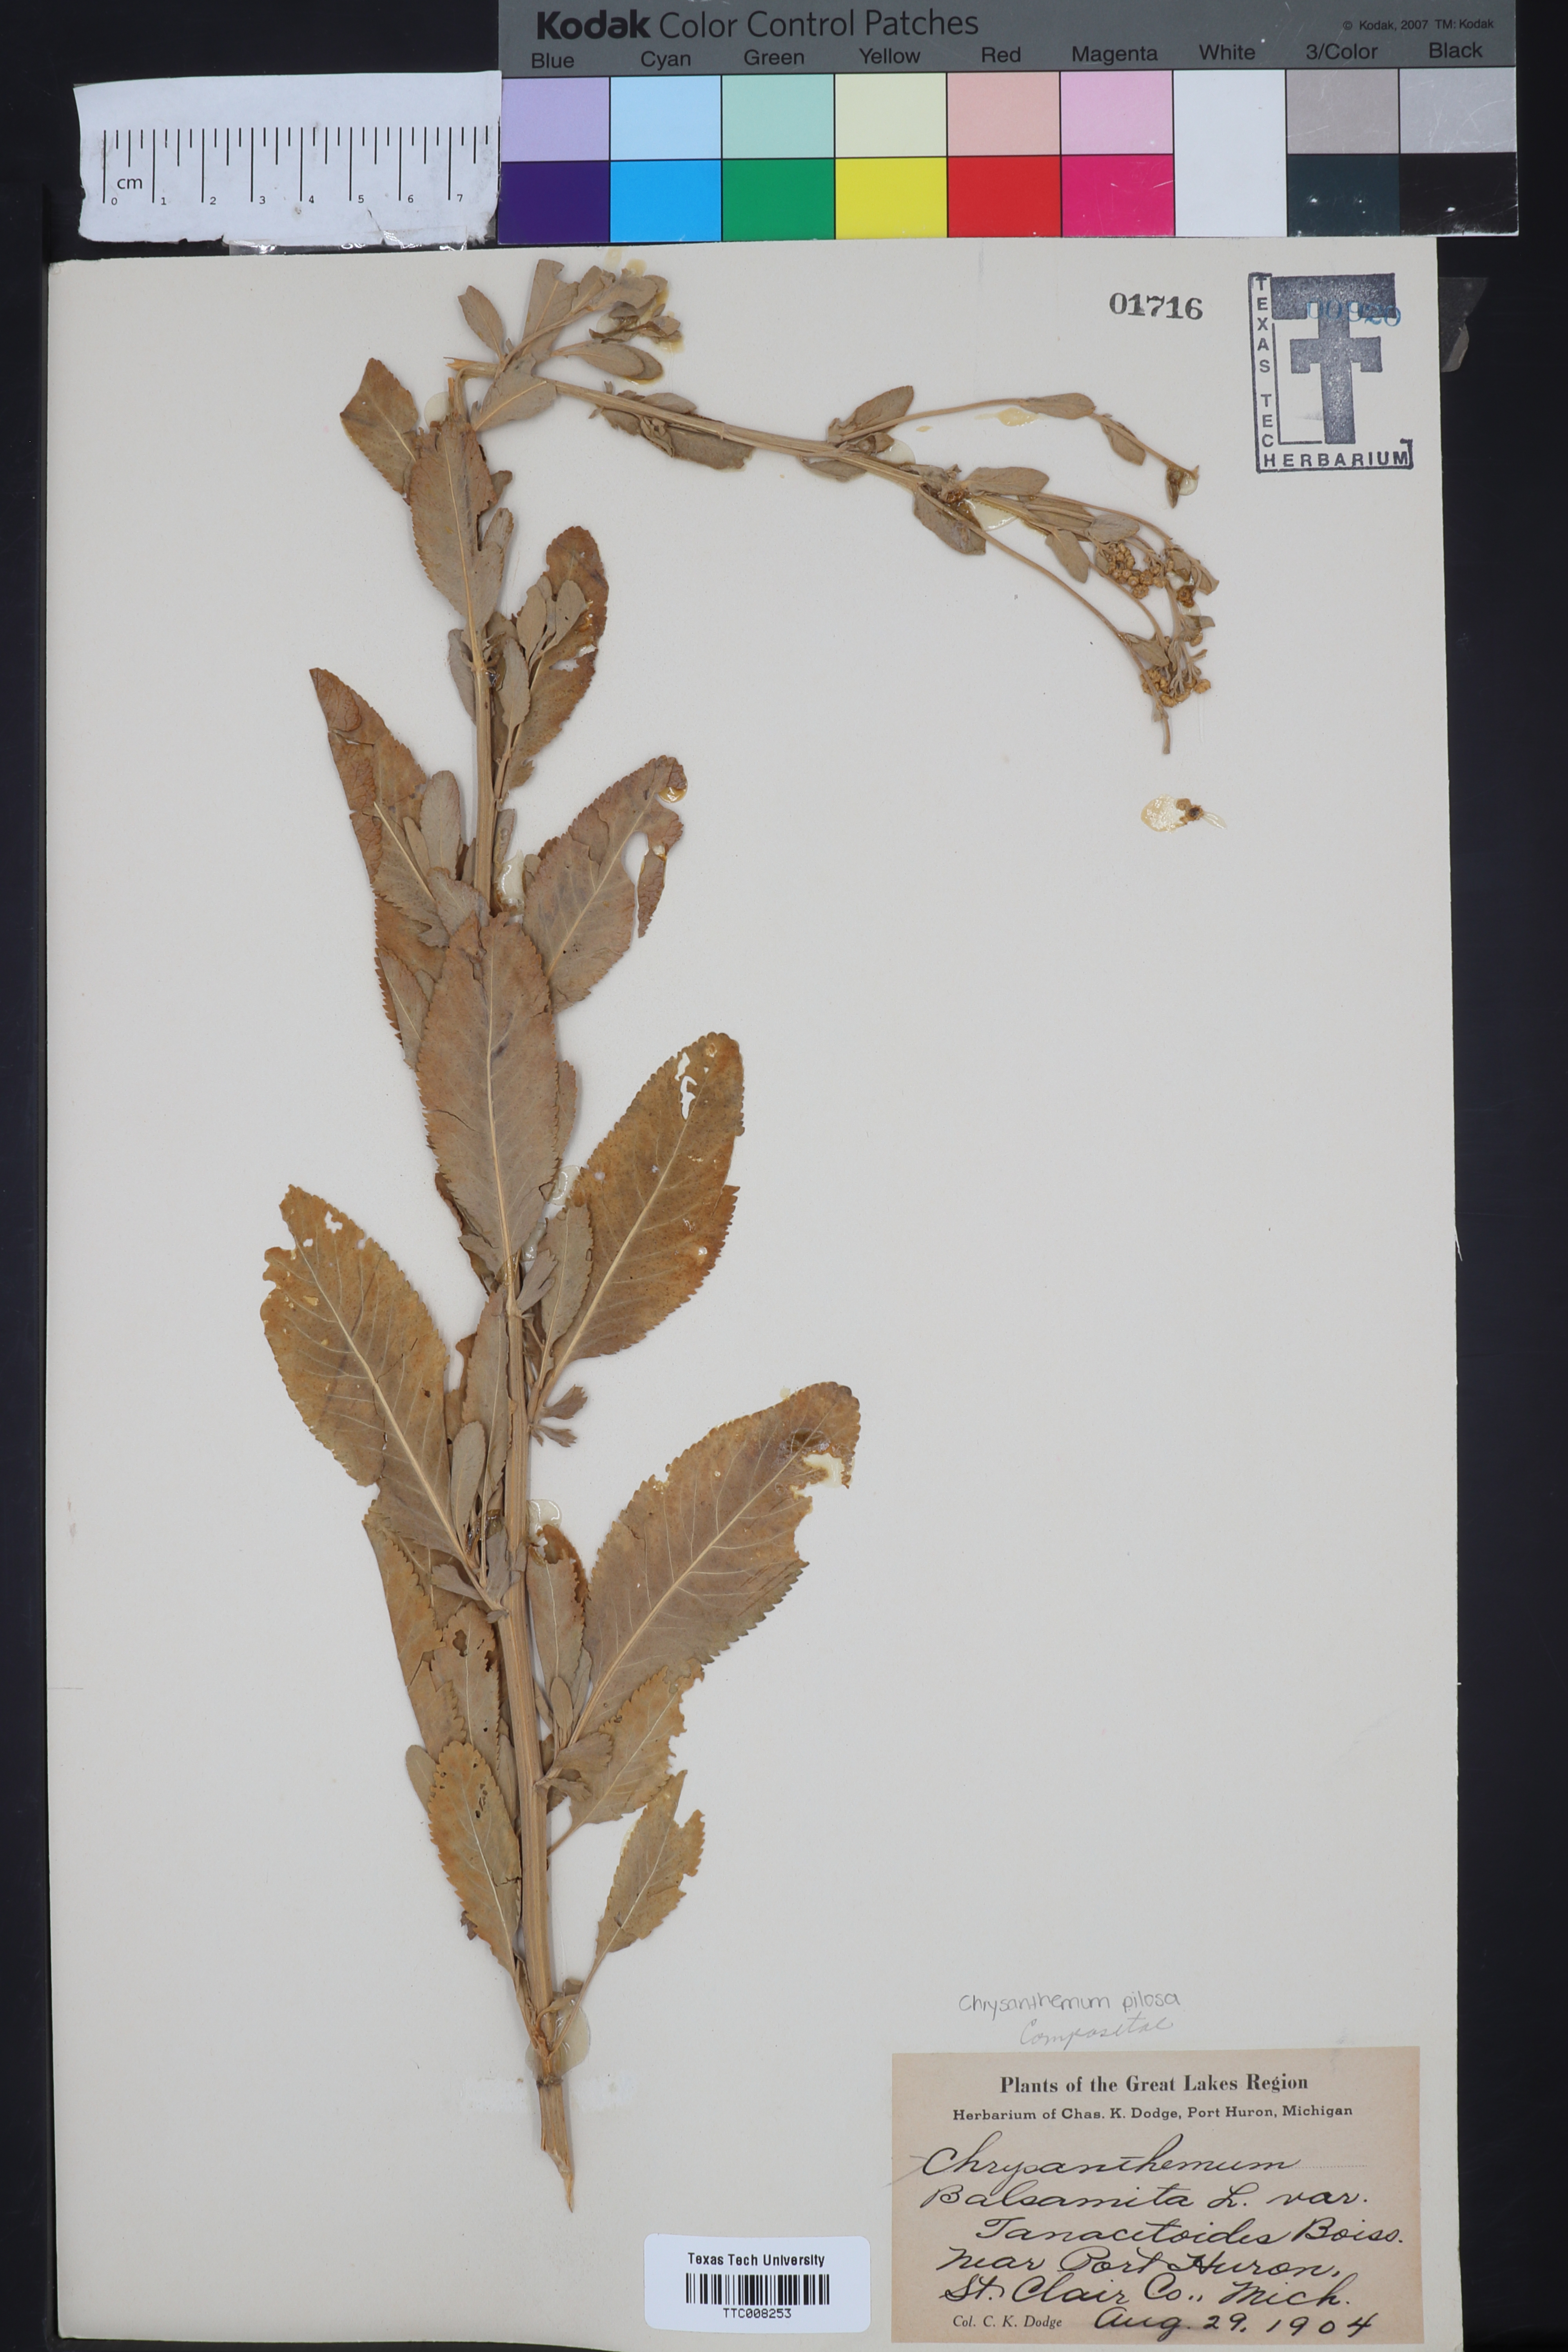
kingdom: Plantae
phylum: Tracheophyta
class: Magnoliopsida
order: Asterales
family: Asteraceae
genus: Tanacetum
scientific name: Tanacetum
